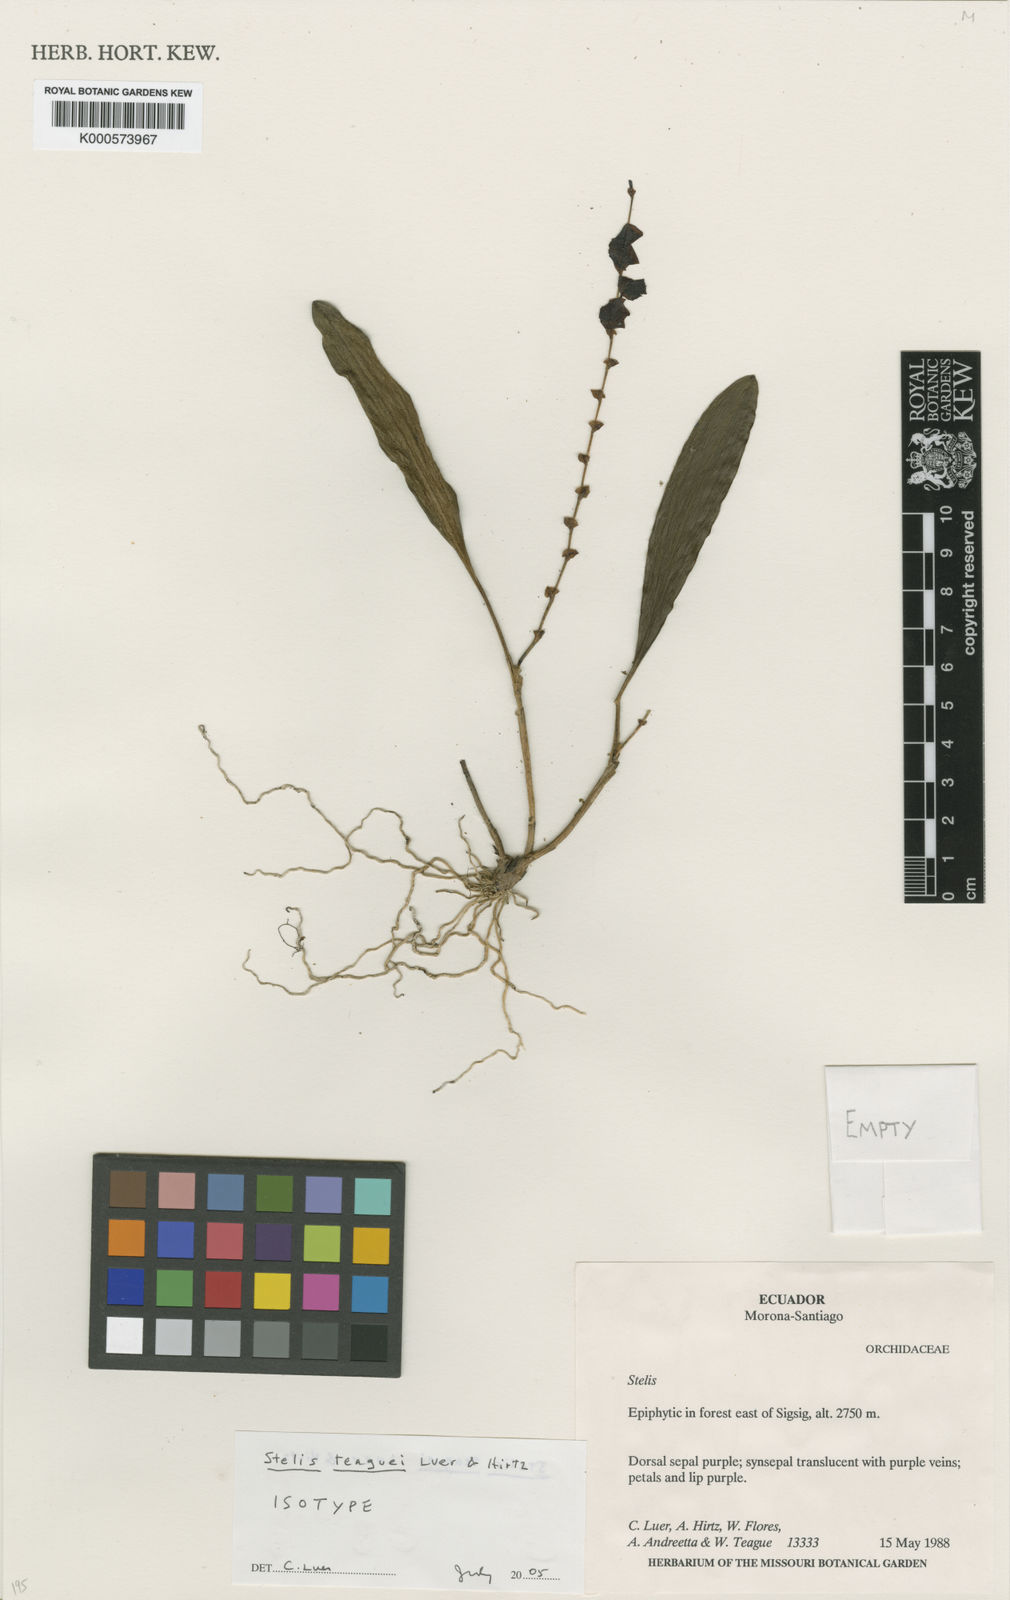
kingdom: Plantae
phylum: Tracheophyta
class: Liliopsida
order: Asparagales
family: Orchidaceae
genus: Stelis
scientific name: Stelis teaguei
